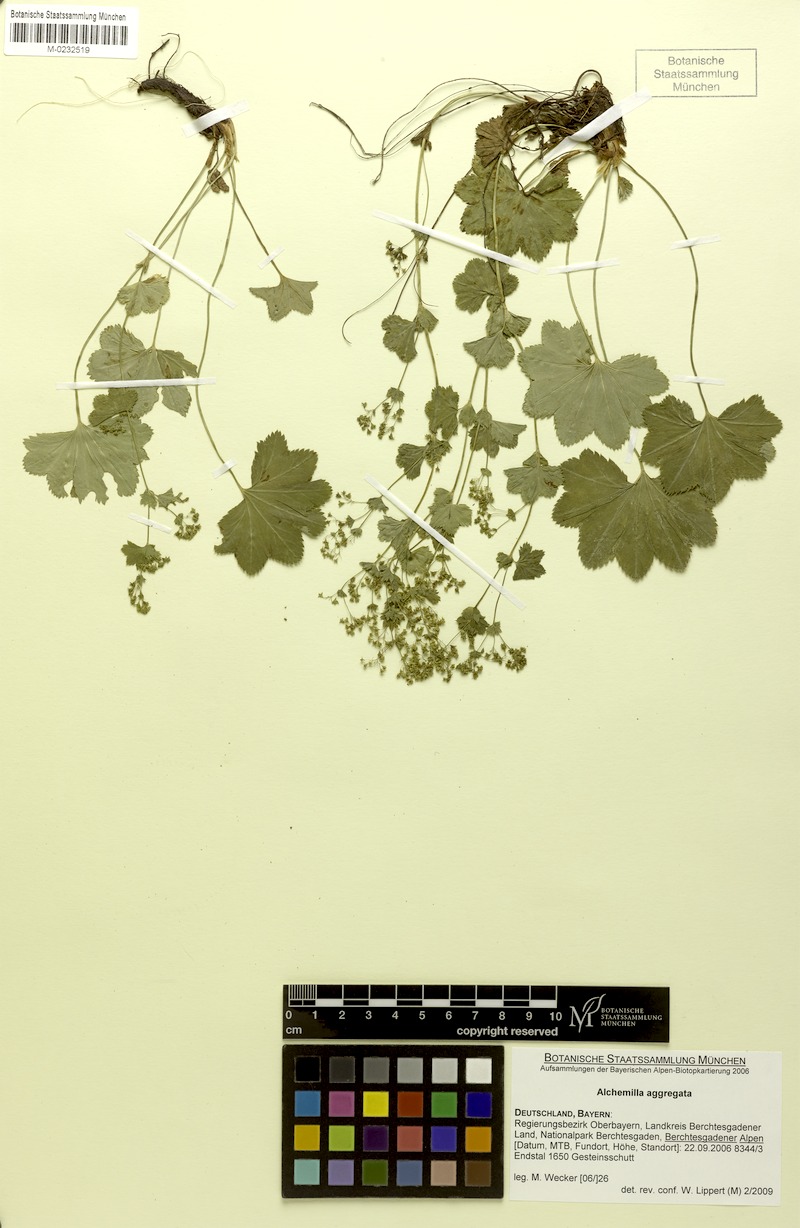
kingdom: Plantae
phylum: Tracheophyta
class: Magnoliopsida
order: Rosales
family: Rosaceae
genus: Alchemilla
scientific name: Alchemilla aggregata
